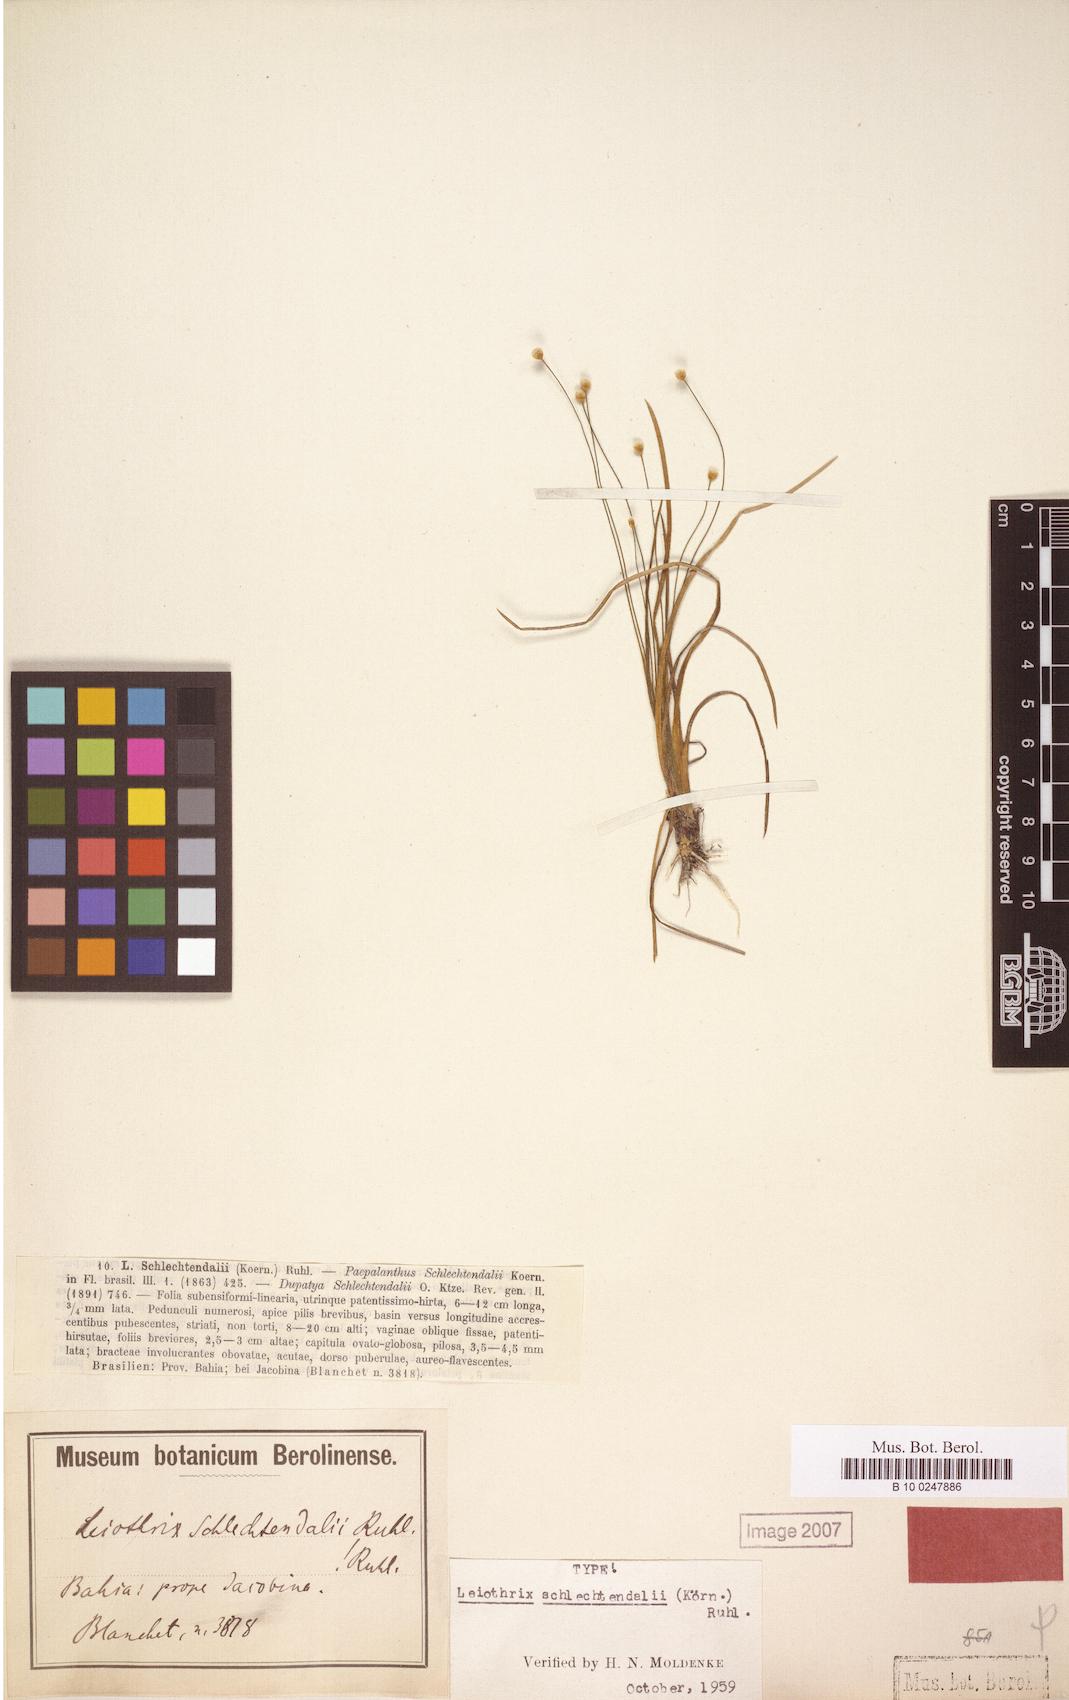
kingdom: Plantae
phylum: Tracheophyta
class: Liliopsida
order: Poales
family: Eriocaulaceae
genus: Leiothrix
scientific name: Leiothrix schlechtendalii
